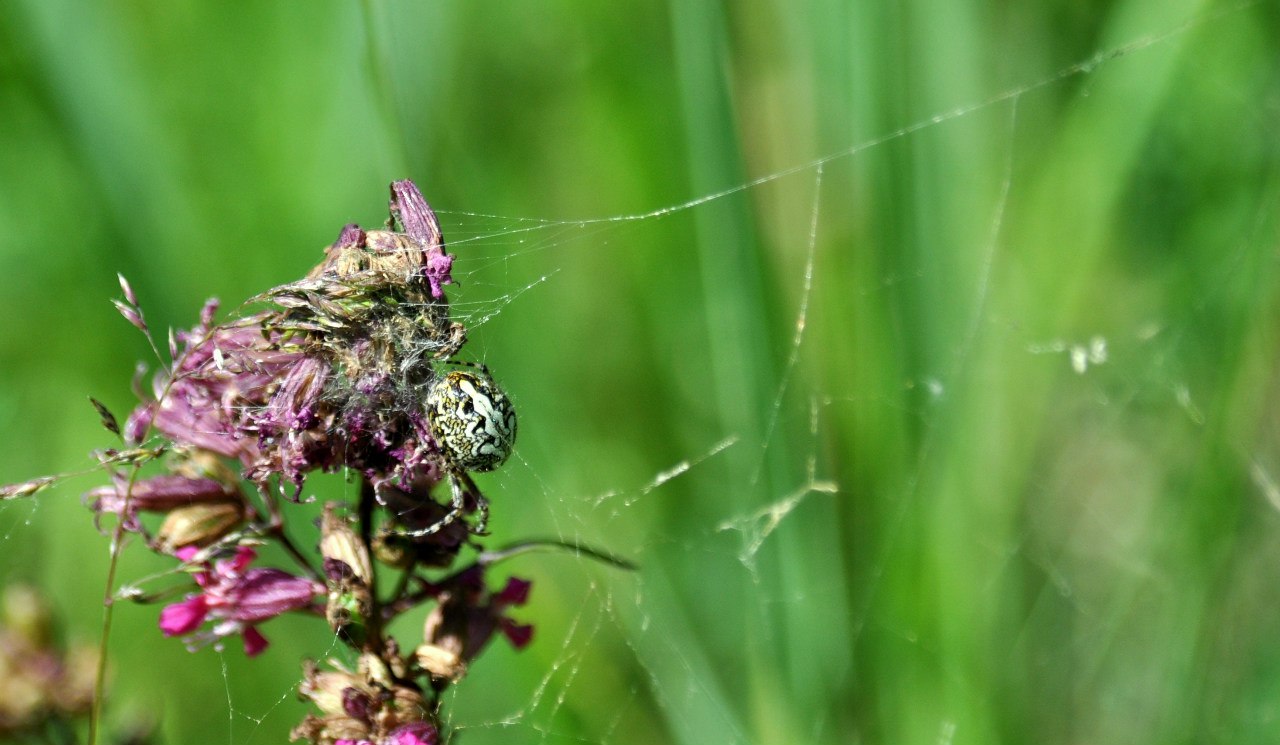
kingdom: Animalia
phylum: Arthropoda
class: Arachnida
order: Araneae
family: Araneidae
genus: Aculepeira
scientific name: Aculepeira
